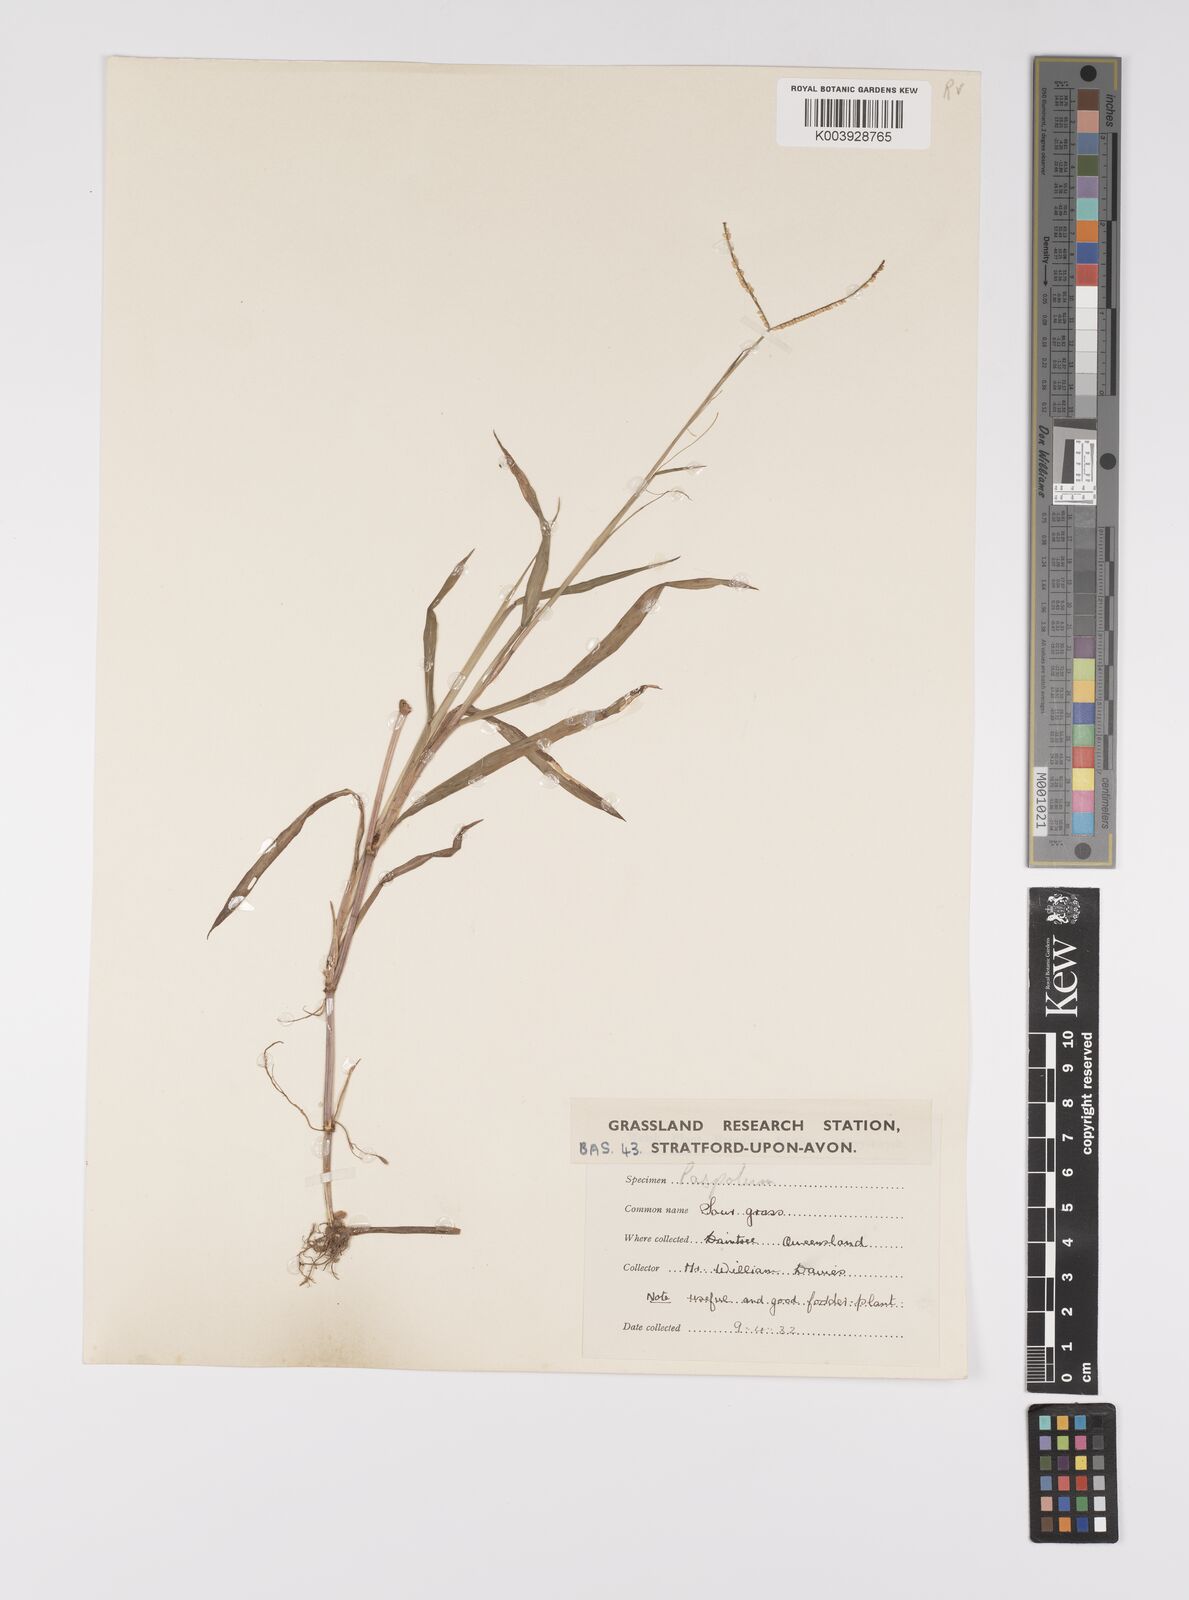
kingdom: Plantae
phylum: Tracheophyta
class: Liliopsida
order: Poales
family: Poaceae
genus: Paspalum
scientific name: Paspalum conjugatum
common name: Hilograss
